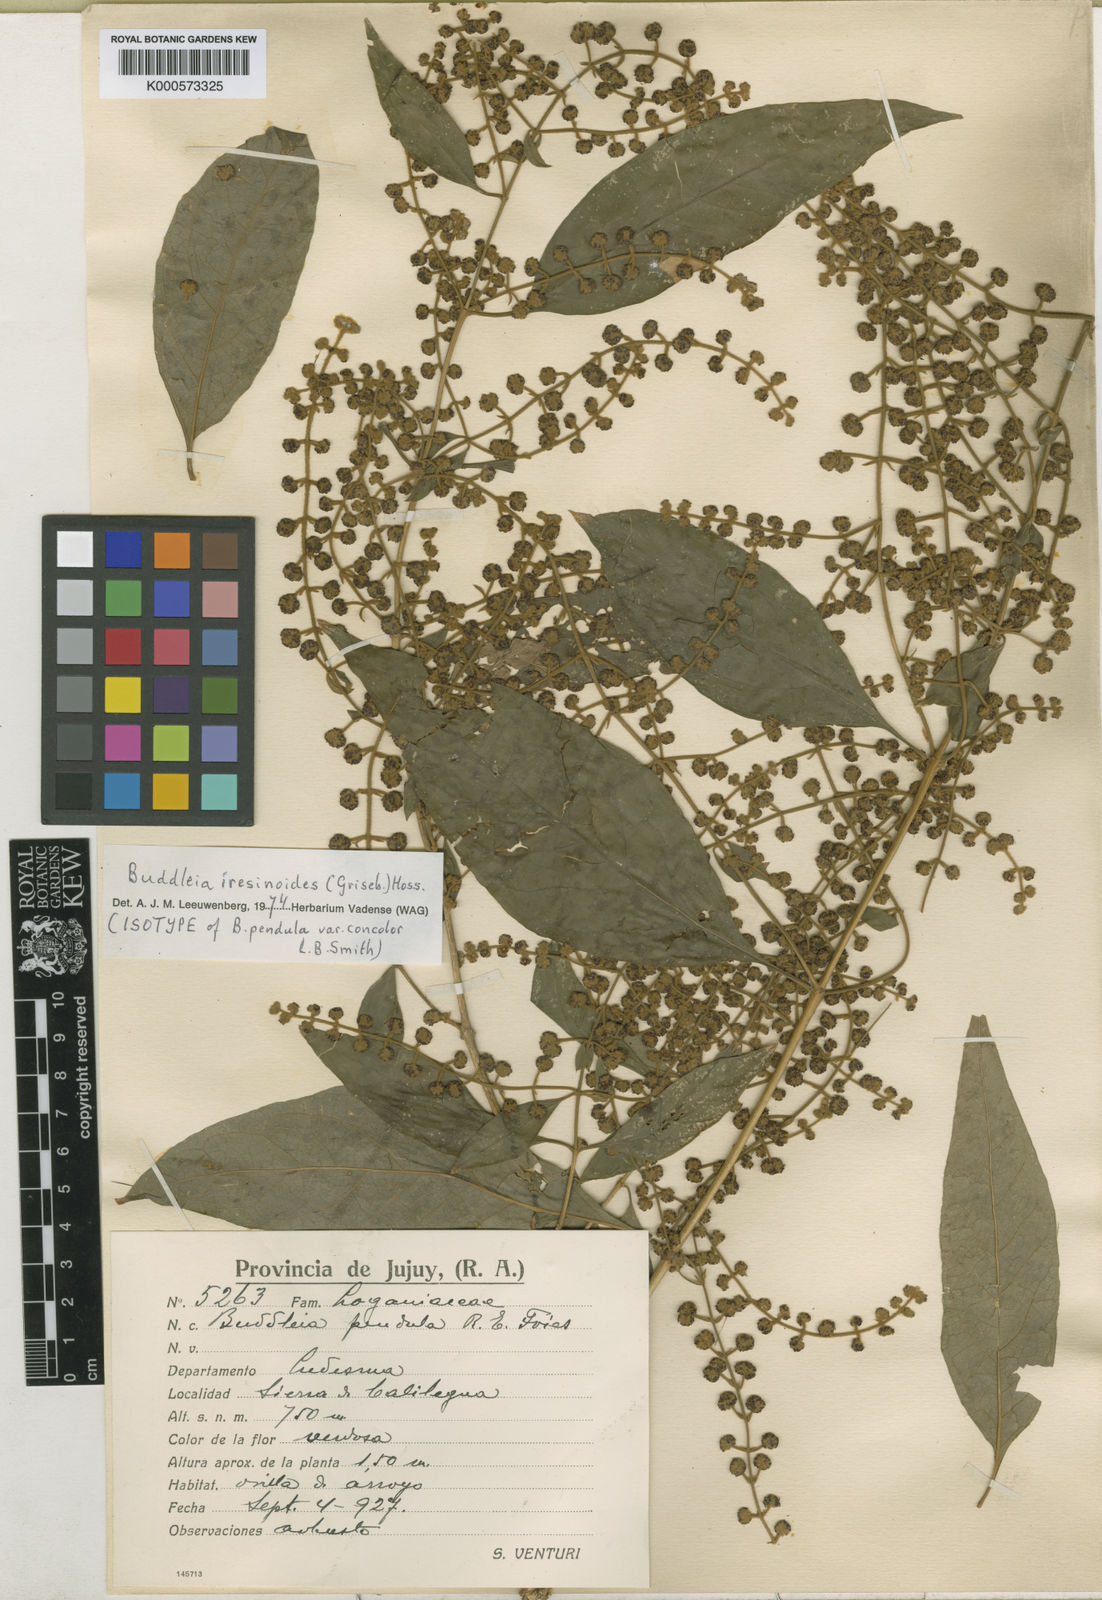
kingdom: Plantae
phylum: Tracheophyta
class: Magnoliopsida
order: Lamiales
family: Scrophulariaceae
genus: Buddleja
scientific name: Buddleja iresinoides
